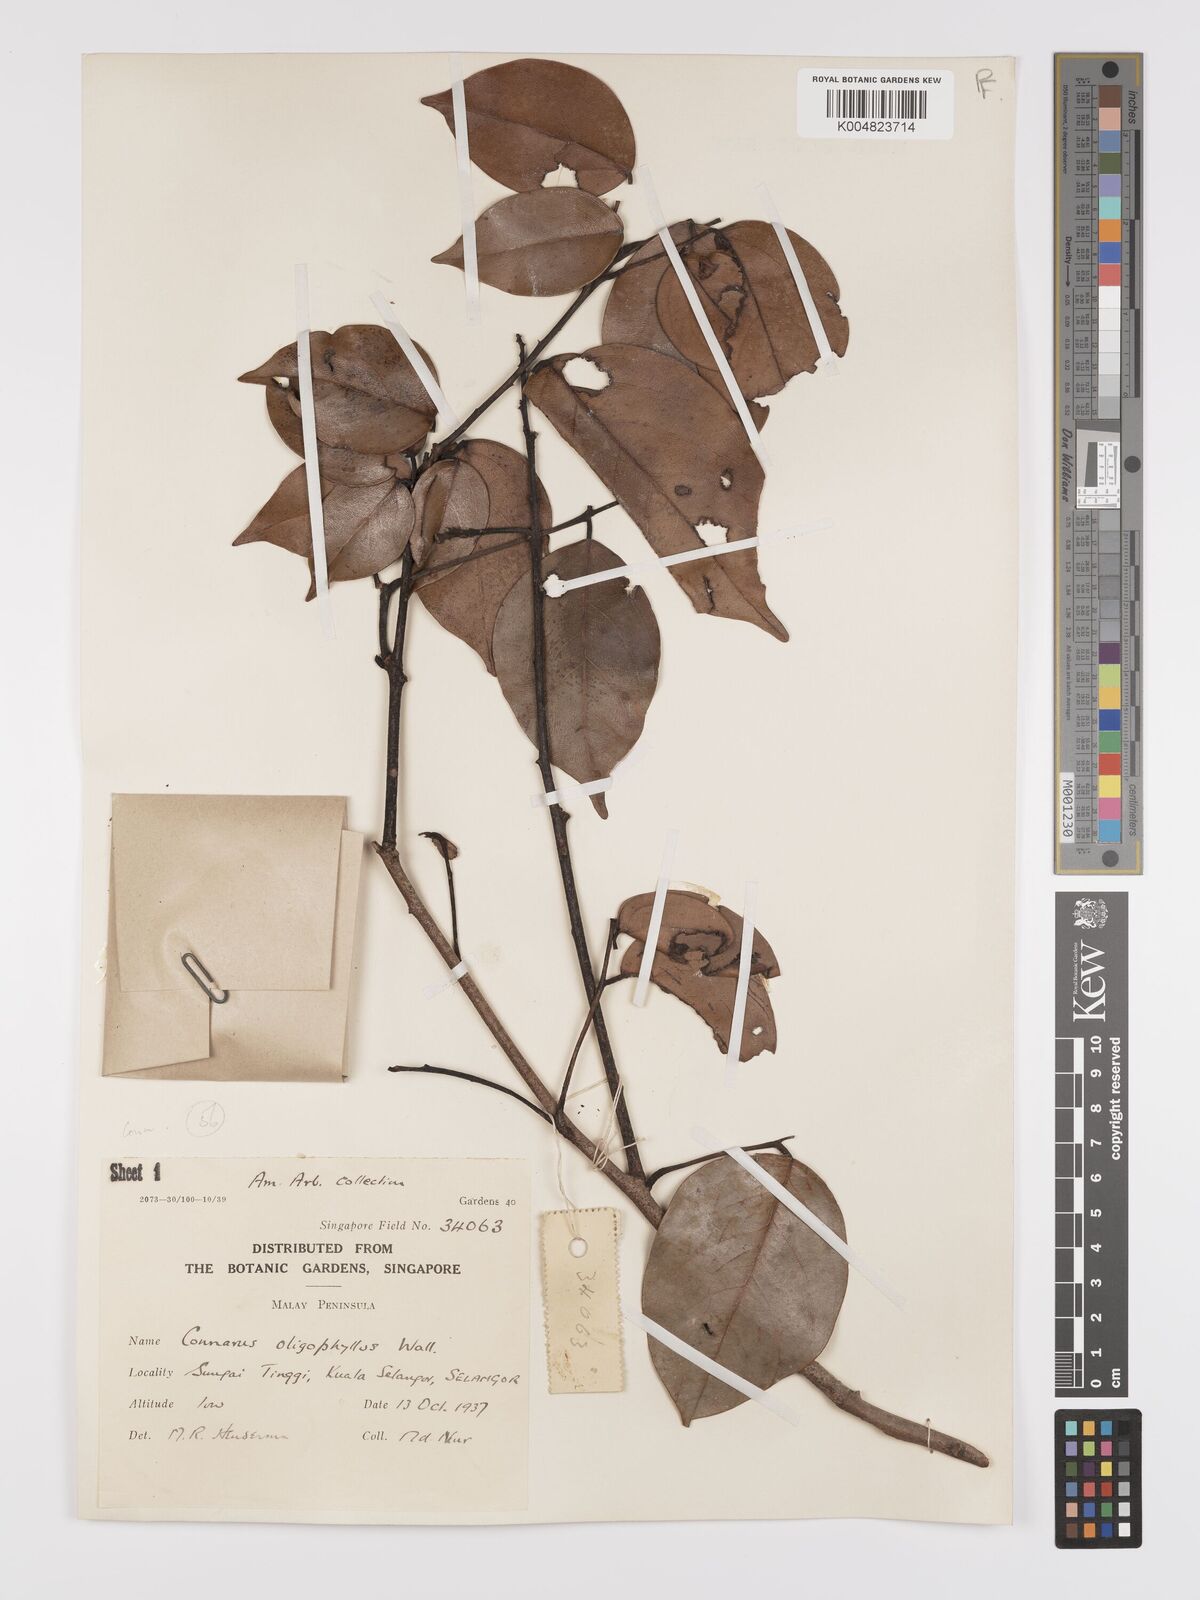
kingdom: Plantae
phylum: Tracheophyta
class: Magnoliopsida
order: Oxalidales
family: Connaraceae
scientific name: Connaraceae
